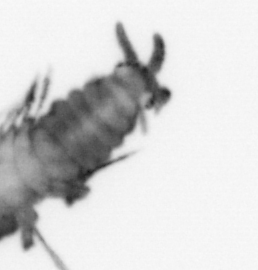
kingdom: Animalia
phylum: Annelida
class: Polychaeta
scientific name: Polychaeta
